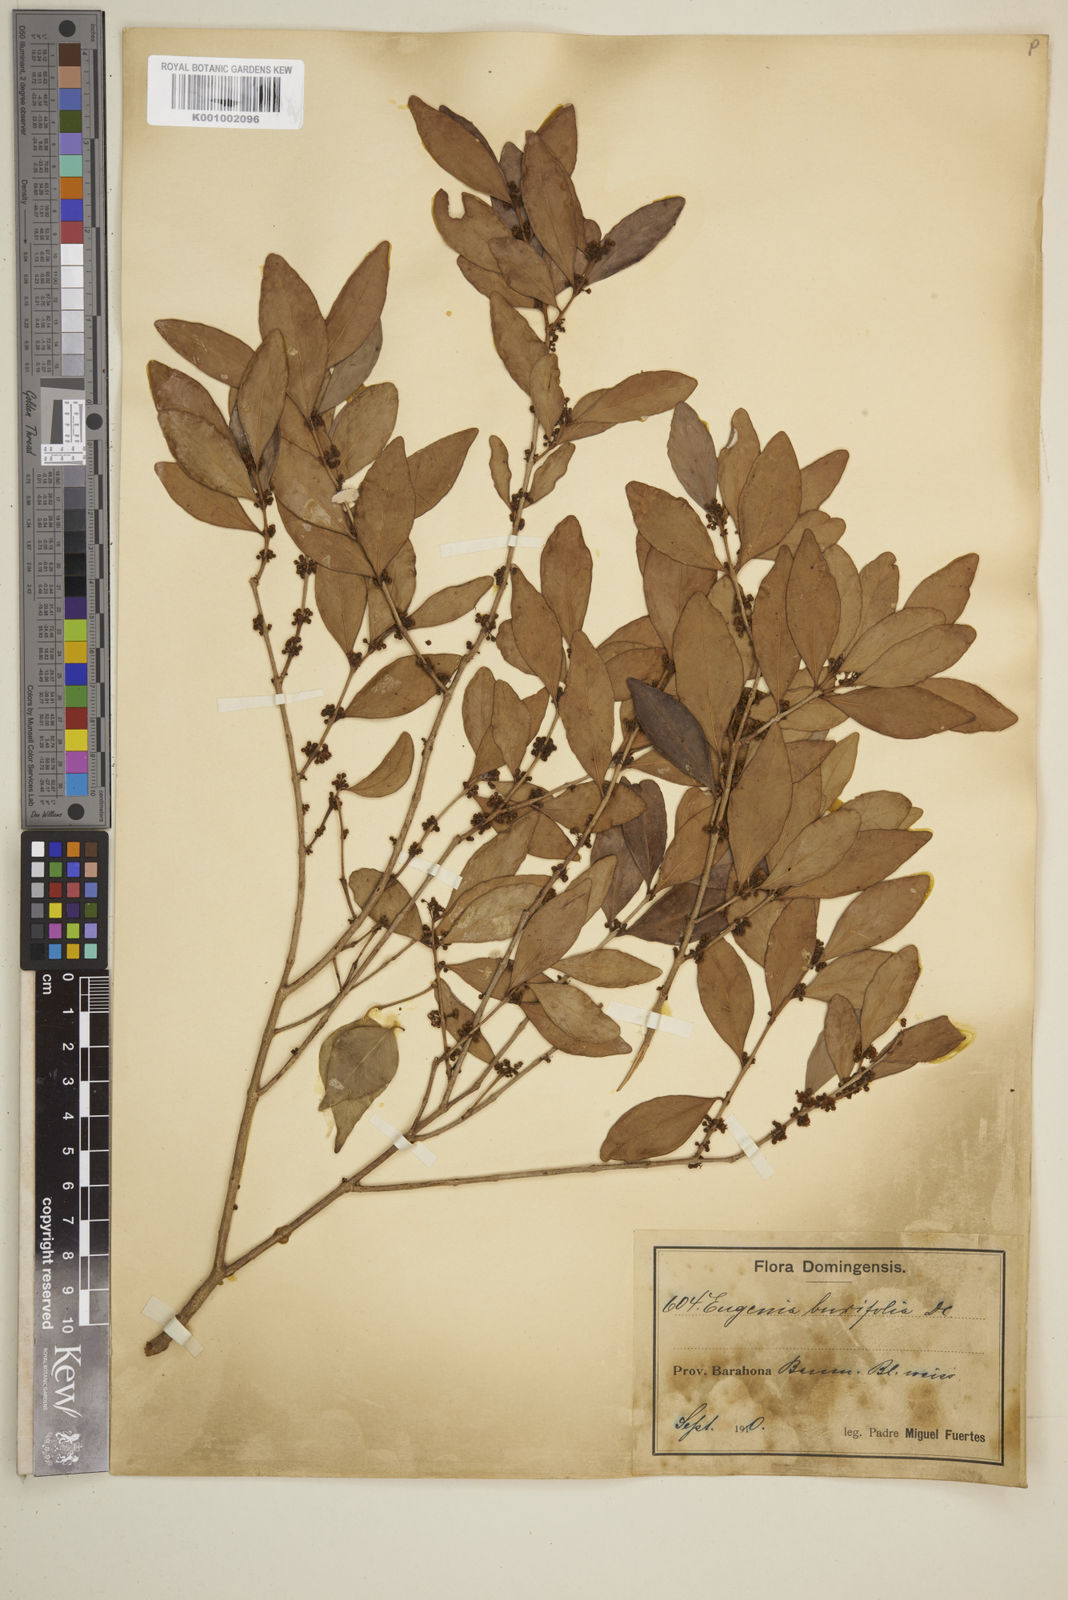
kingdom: Plantae
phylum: Tracheophyta
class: Magnoliopsida
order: Myrtales
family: Myrtaceae
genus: Eugenia
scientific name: Eugenia buxifolia
